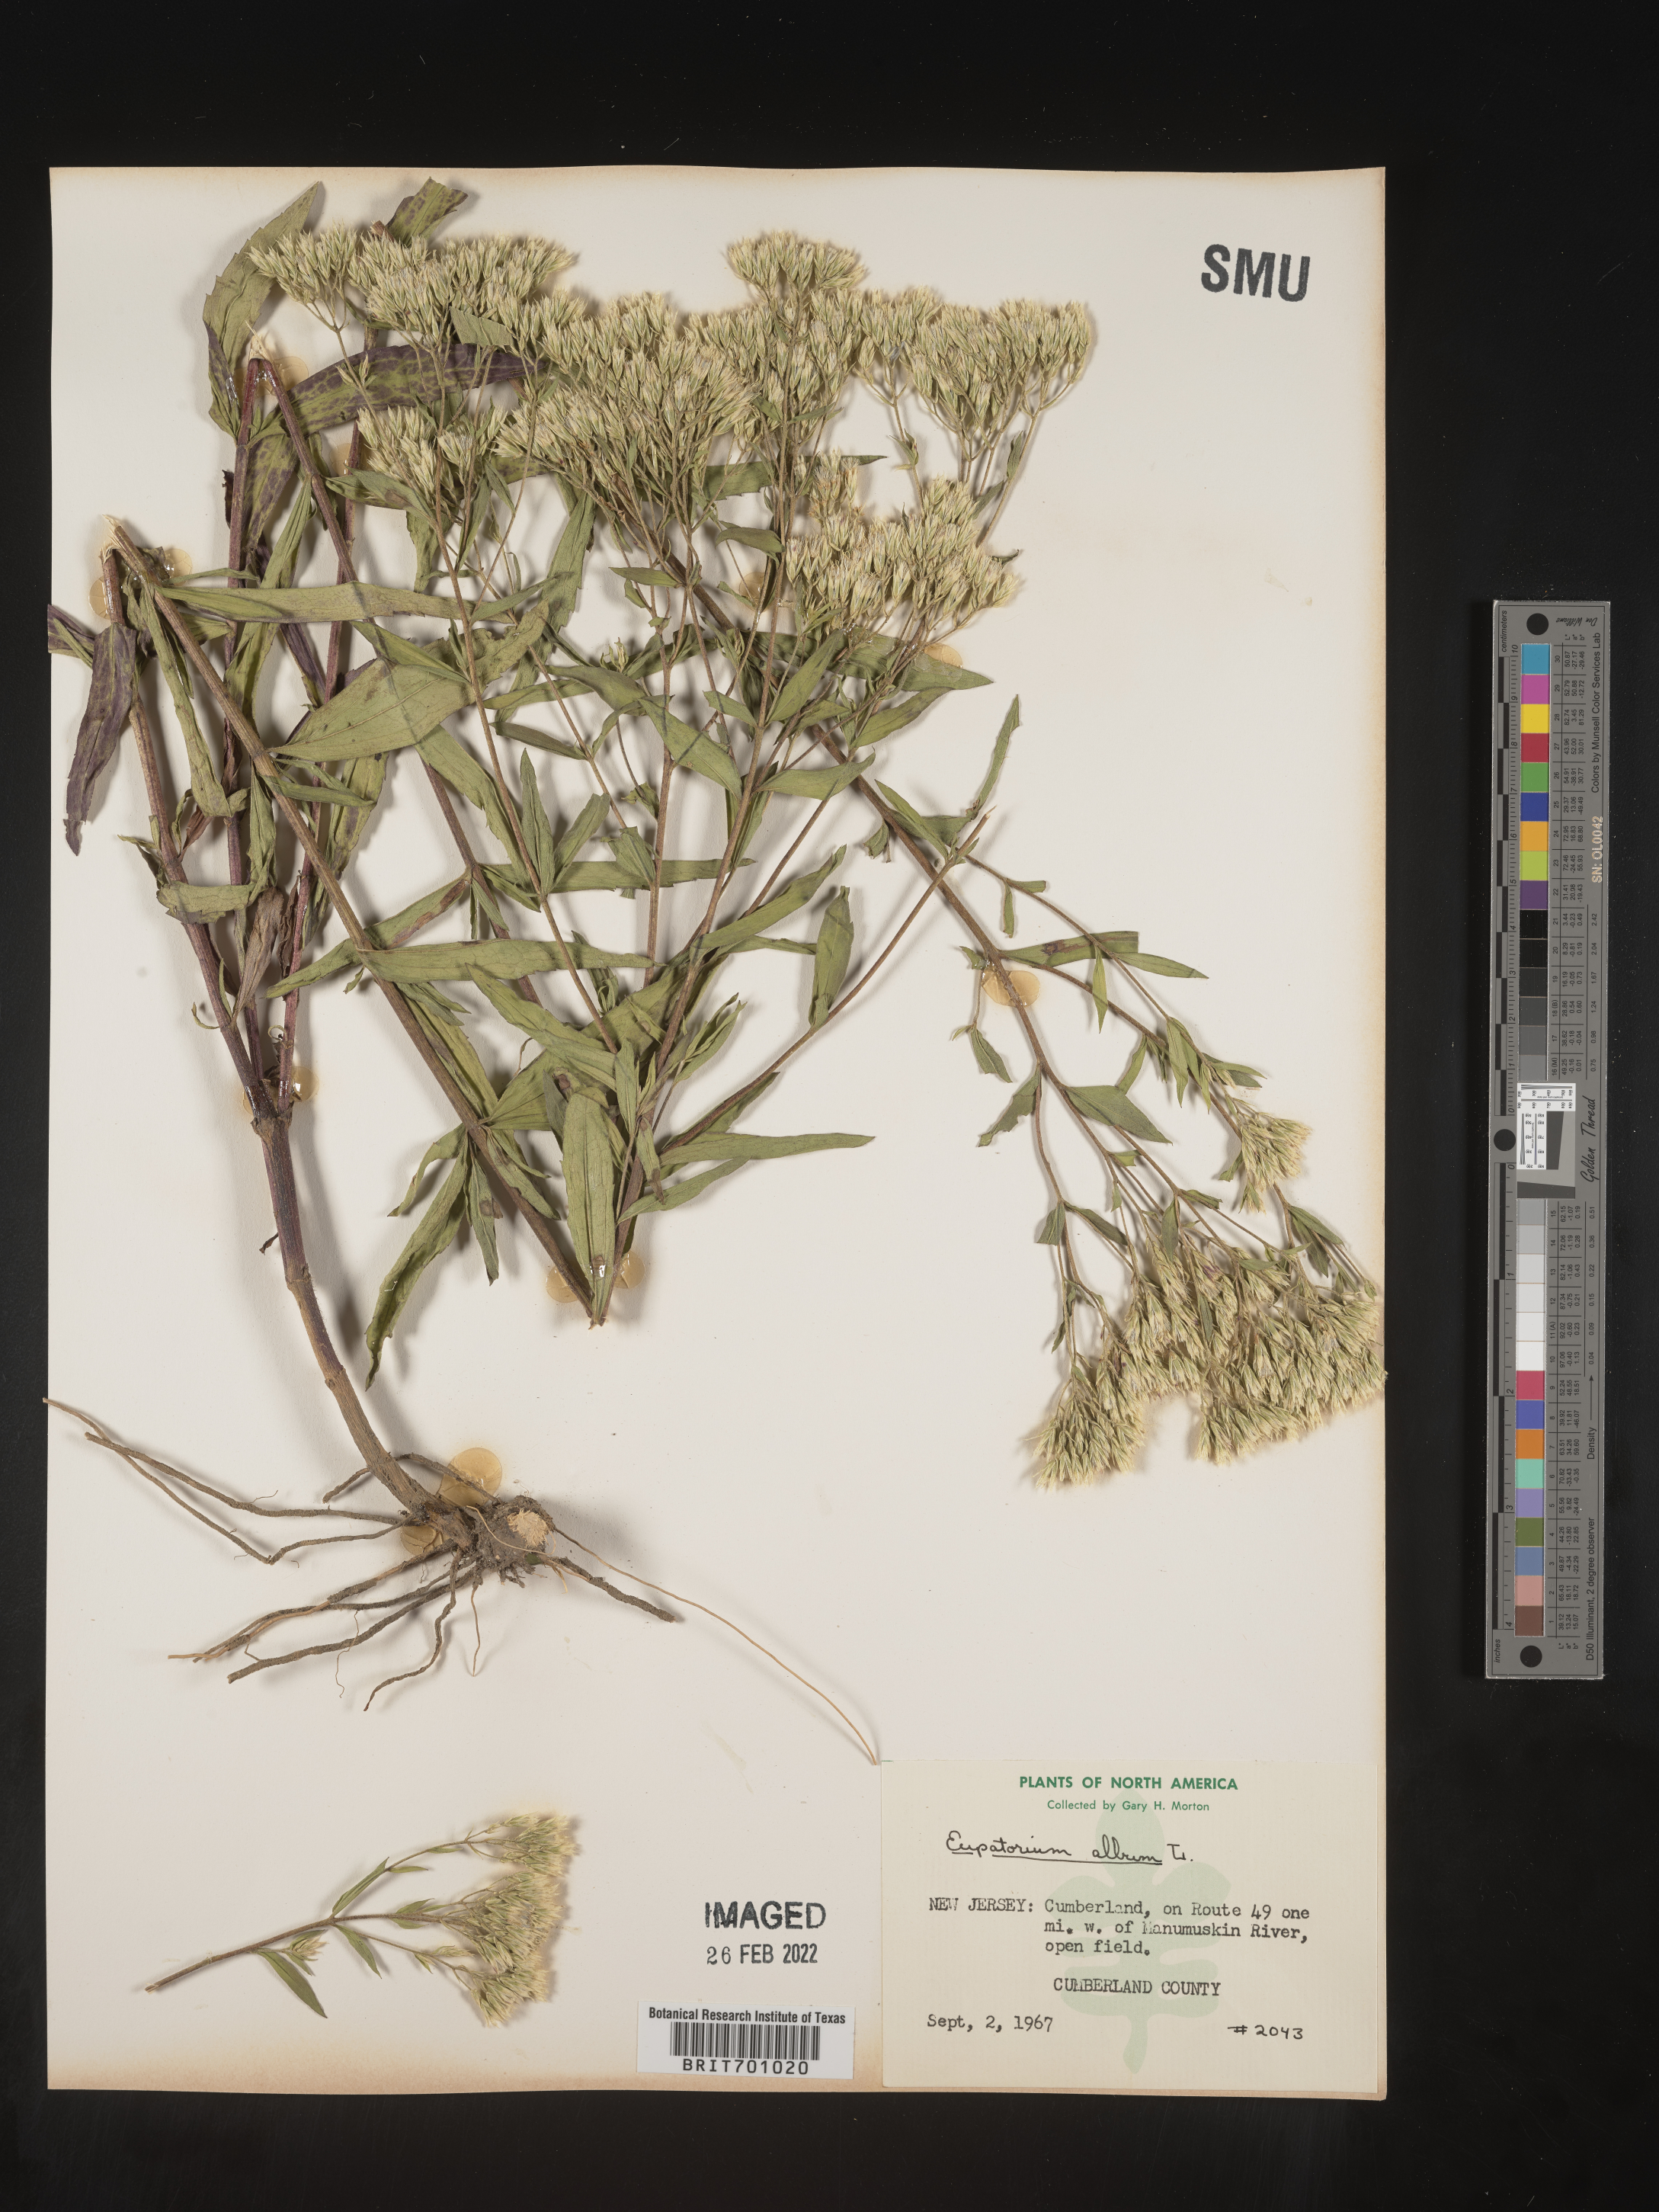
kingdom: Plantae
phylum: Tracheophyta
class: Magnoliopsida
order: Asterales
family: Asteraceae
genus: Eupatorium
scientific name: Eupatorium album
